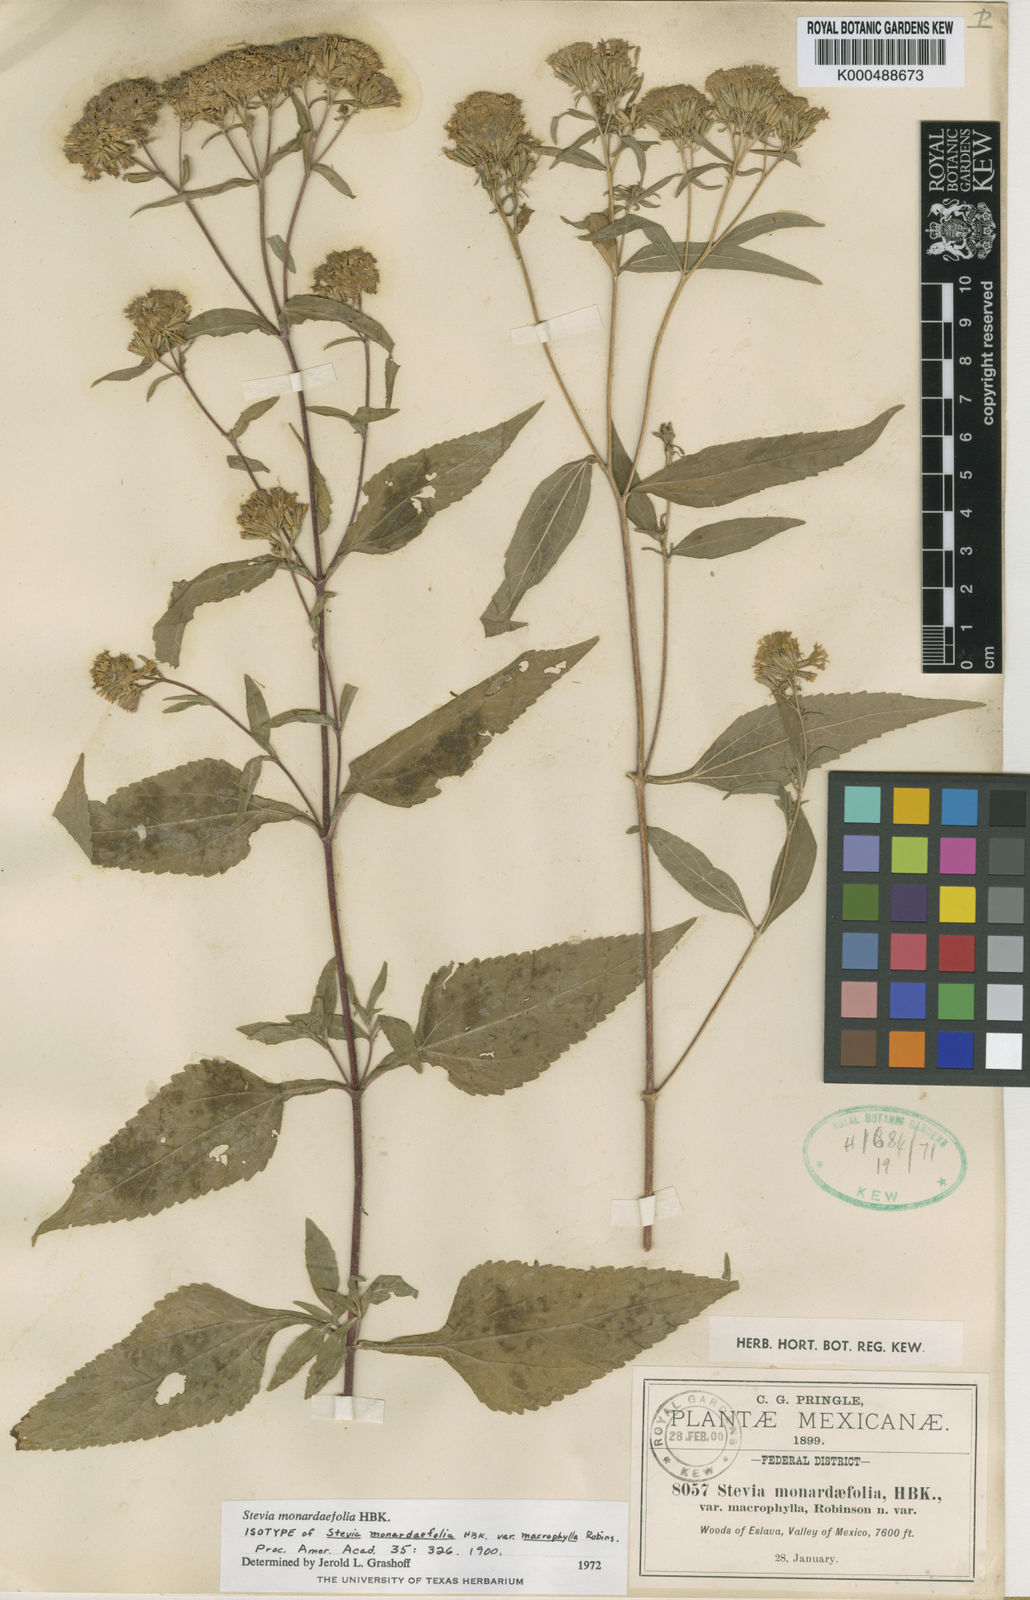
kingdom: Plantae
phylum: Tracheophyta
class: Magnoliopsida
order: Asterales
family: Asteraceae
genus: Stevia
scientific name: Stevia monardifolia
